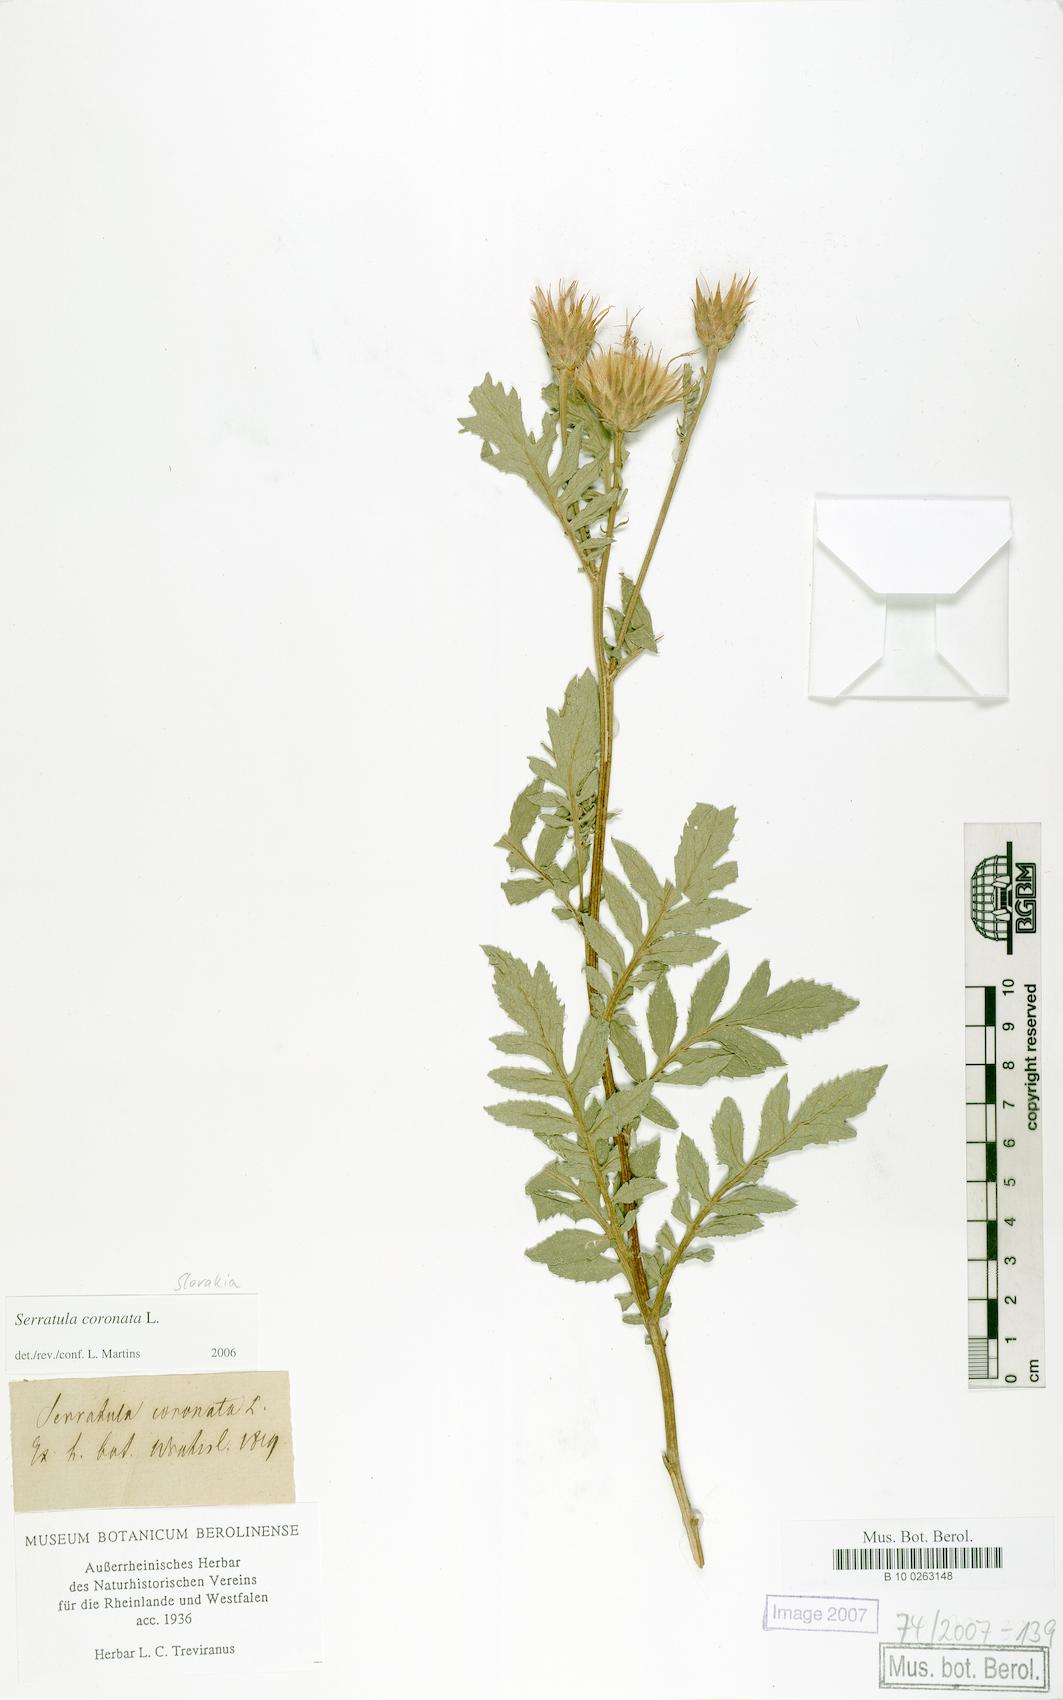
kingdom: Plantae
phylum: Tracheophyta
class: Magnoliopsida
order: Asterales
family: Asteraceae
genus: Serratula
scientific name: Serratula coronata
